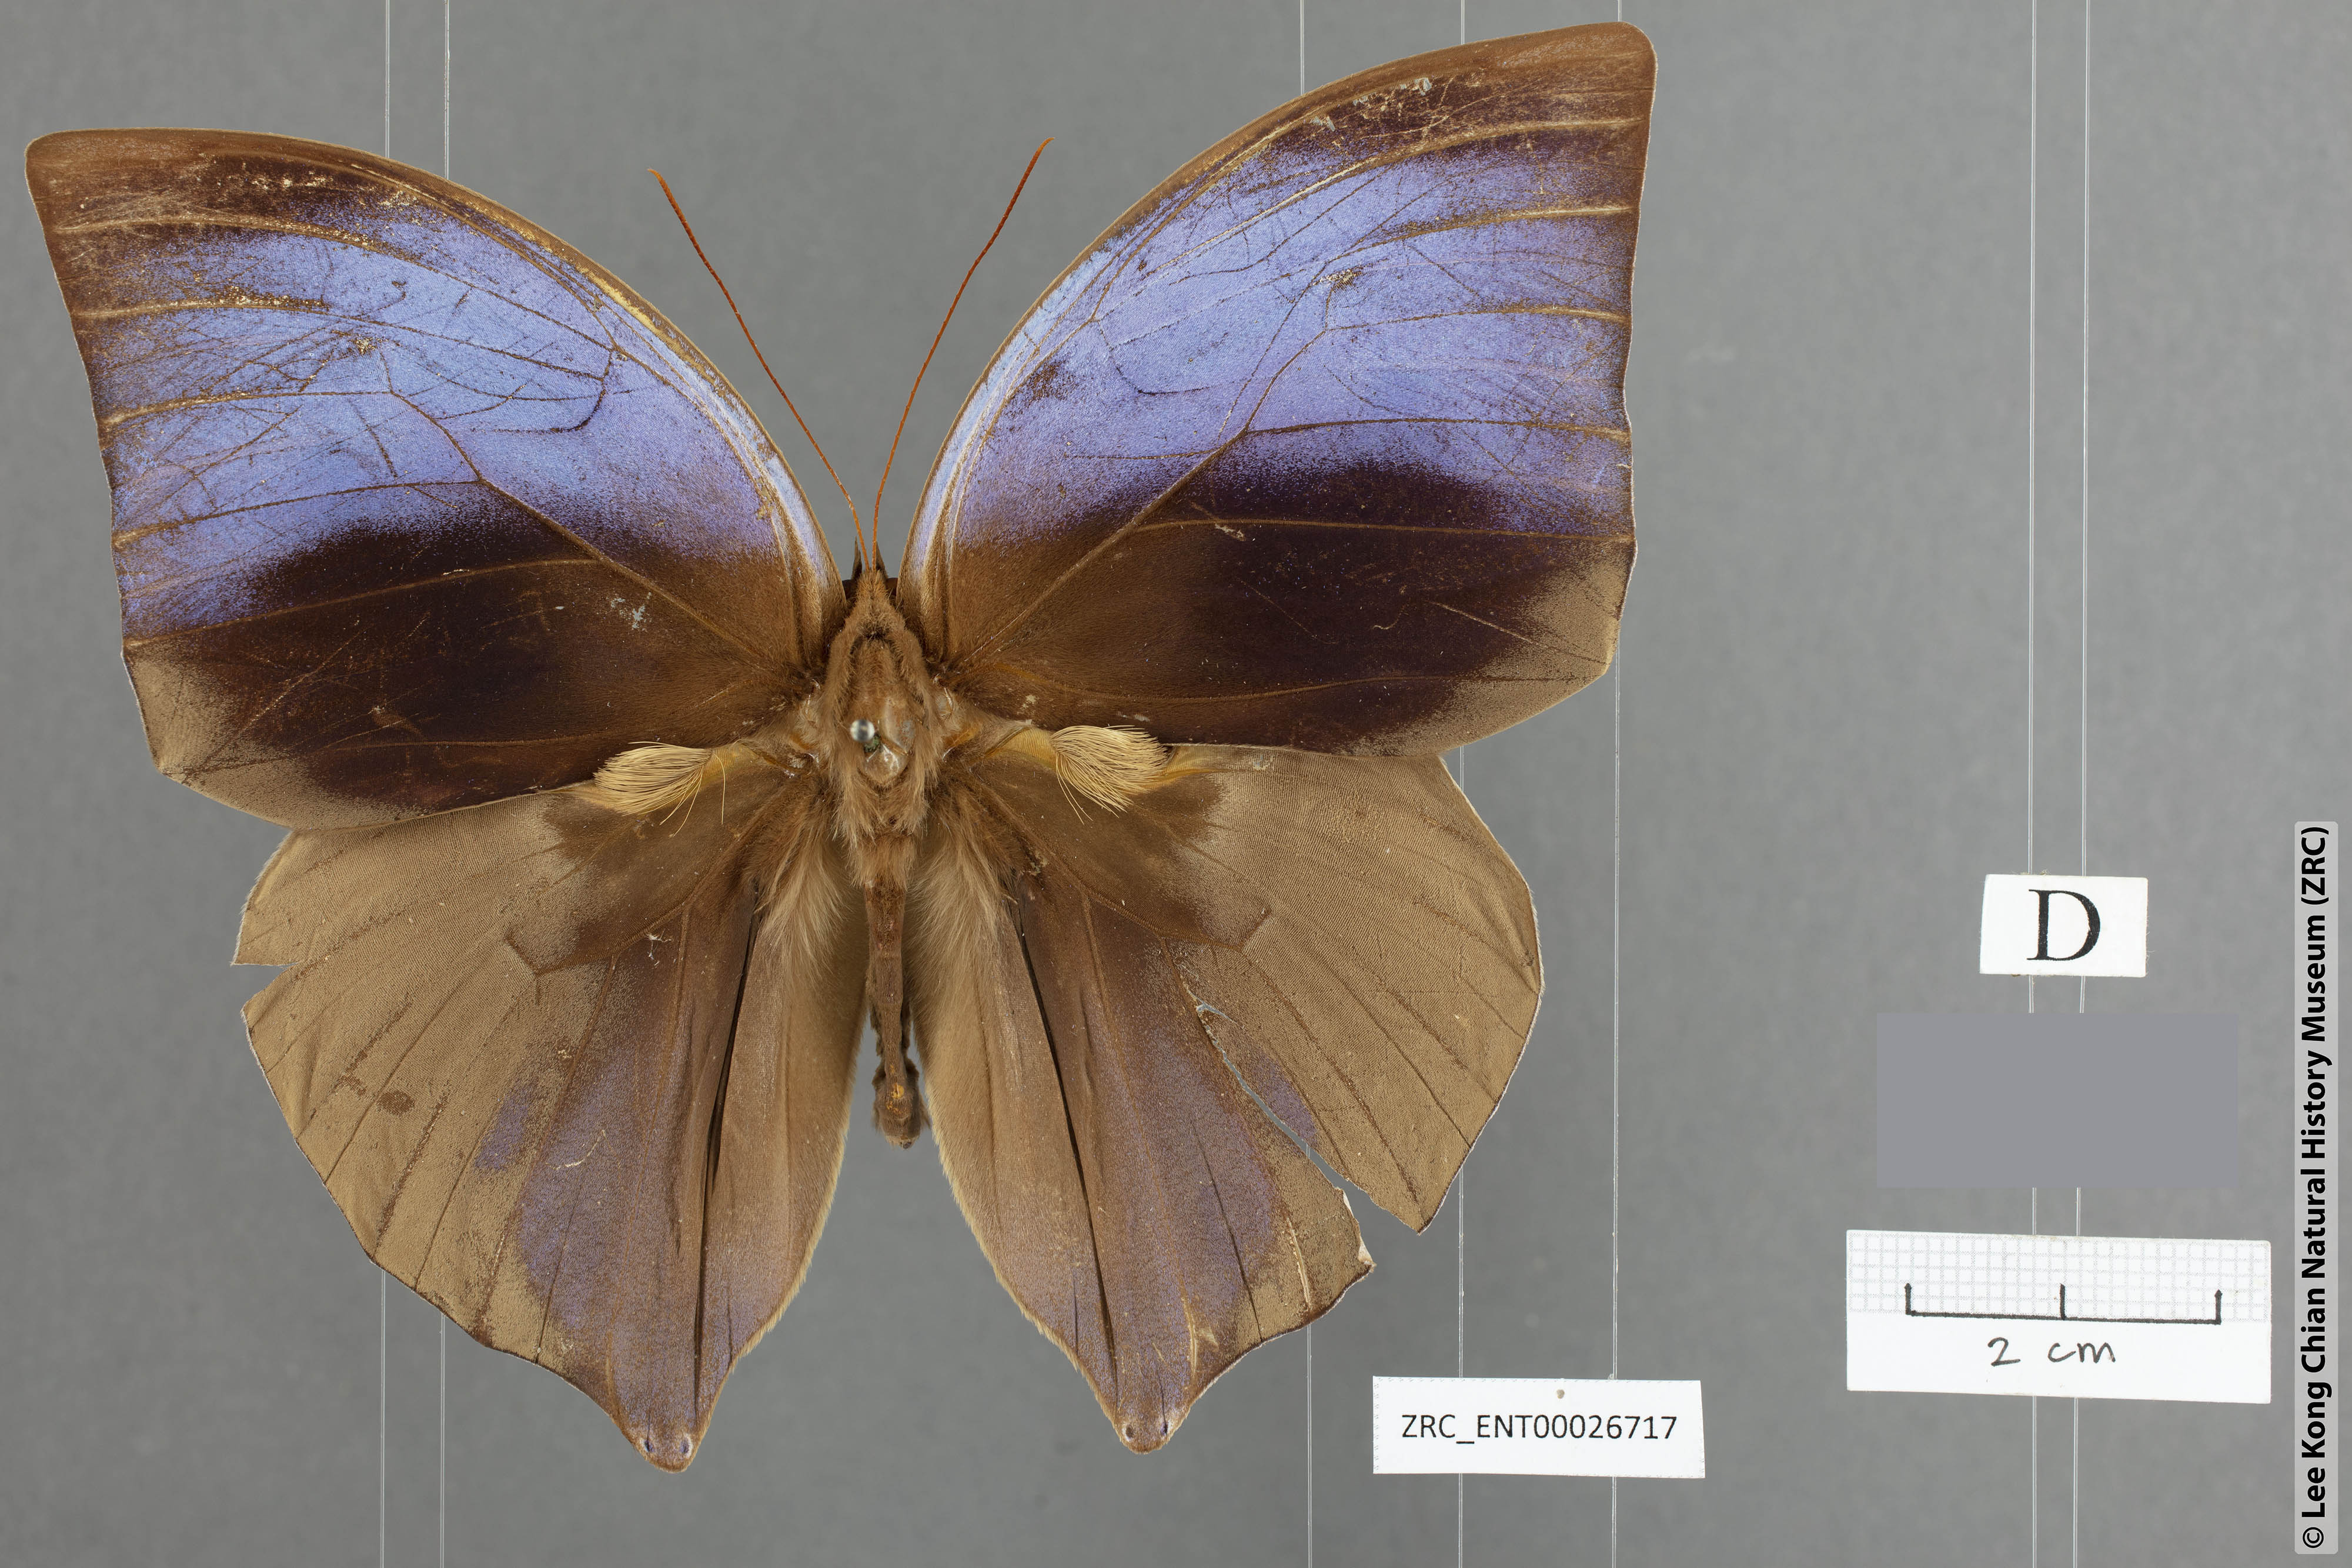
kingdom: Animalia
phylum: Arthropoda
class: Insecta
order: Lepidoptera
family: Nymphalidae
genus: Zeuxidia
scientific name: Zeuxidia aurelia
